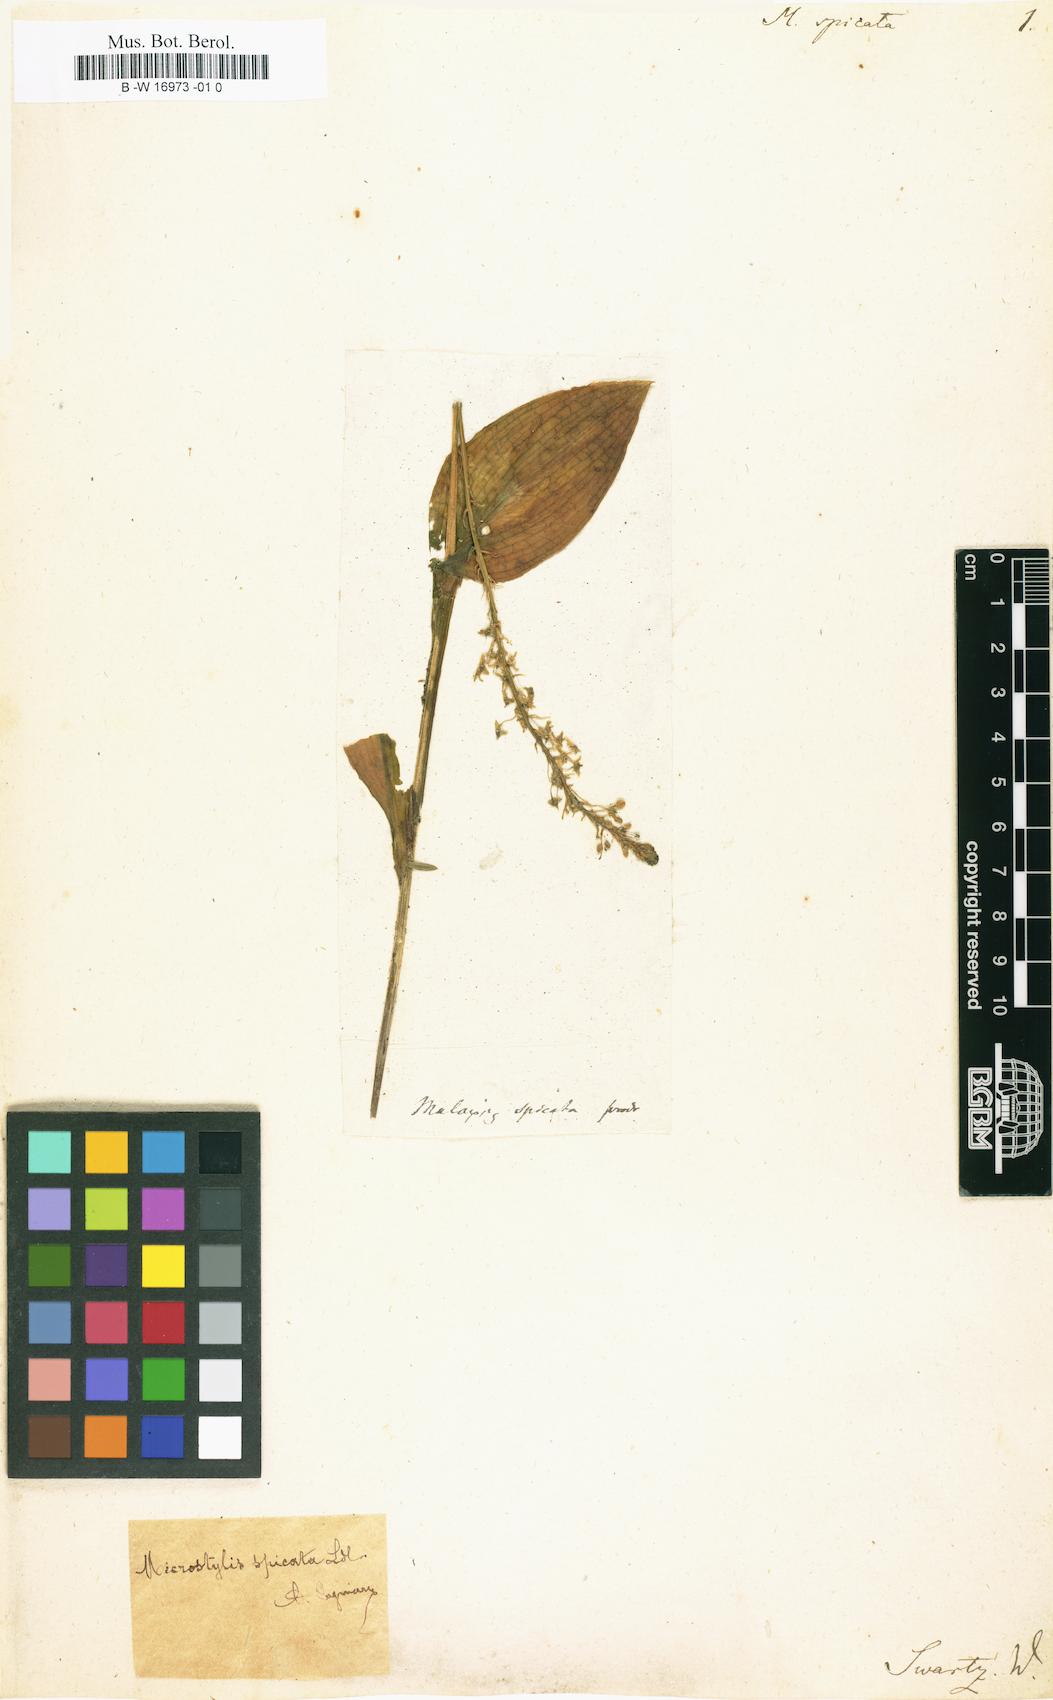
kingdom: Plantae
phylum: Tracheophyta
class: Liliopsida
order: Asparagales
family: Orchidaceae
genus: Malaxis
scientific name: Malaxis spicata
